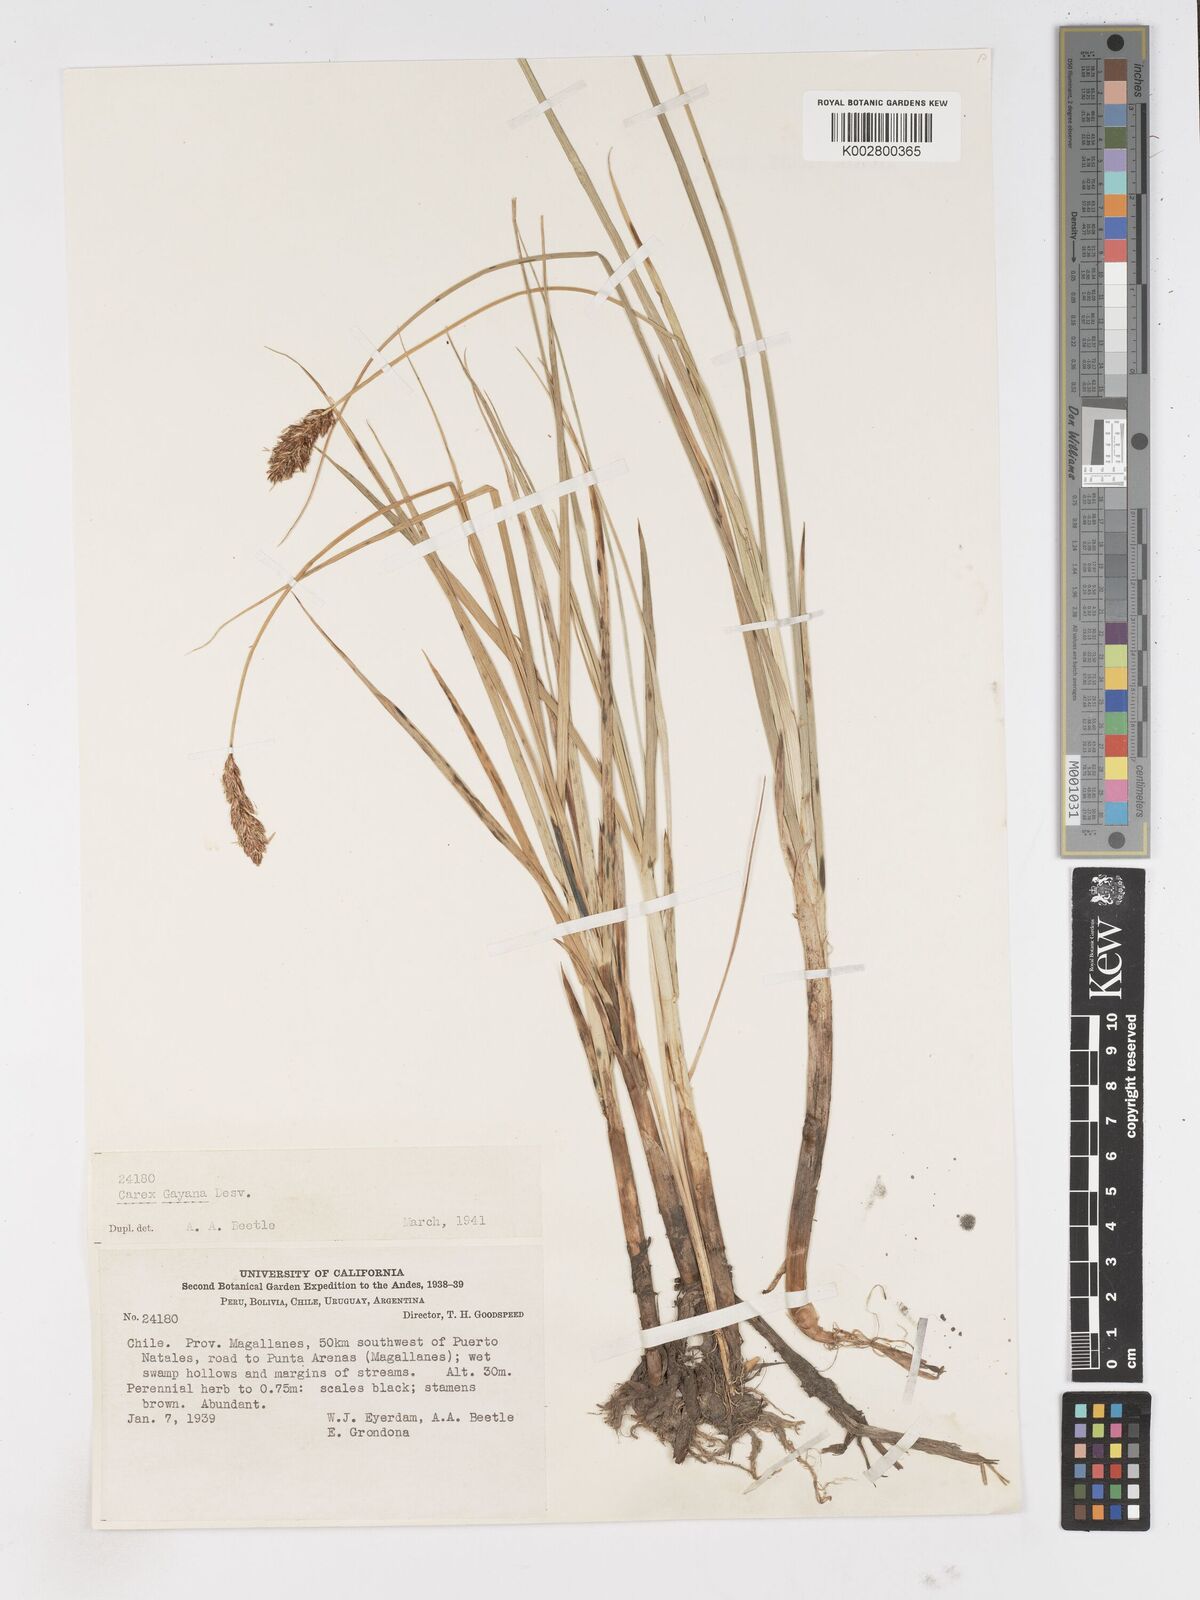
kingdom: Plantae
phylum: Tracheophyta
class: Liliopsida
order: Poales
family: Cyperaceae
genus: Carex
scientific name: Carex gayana
